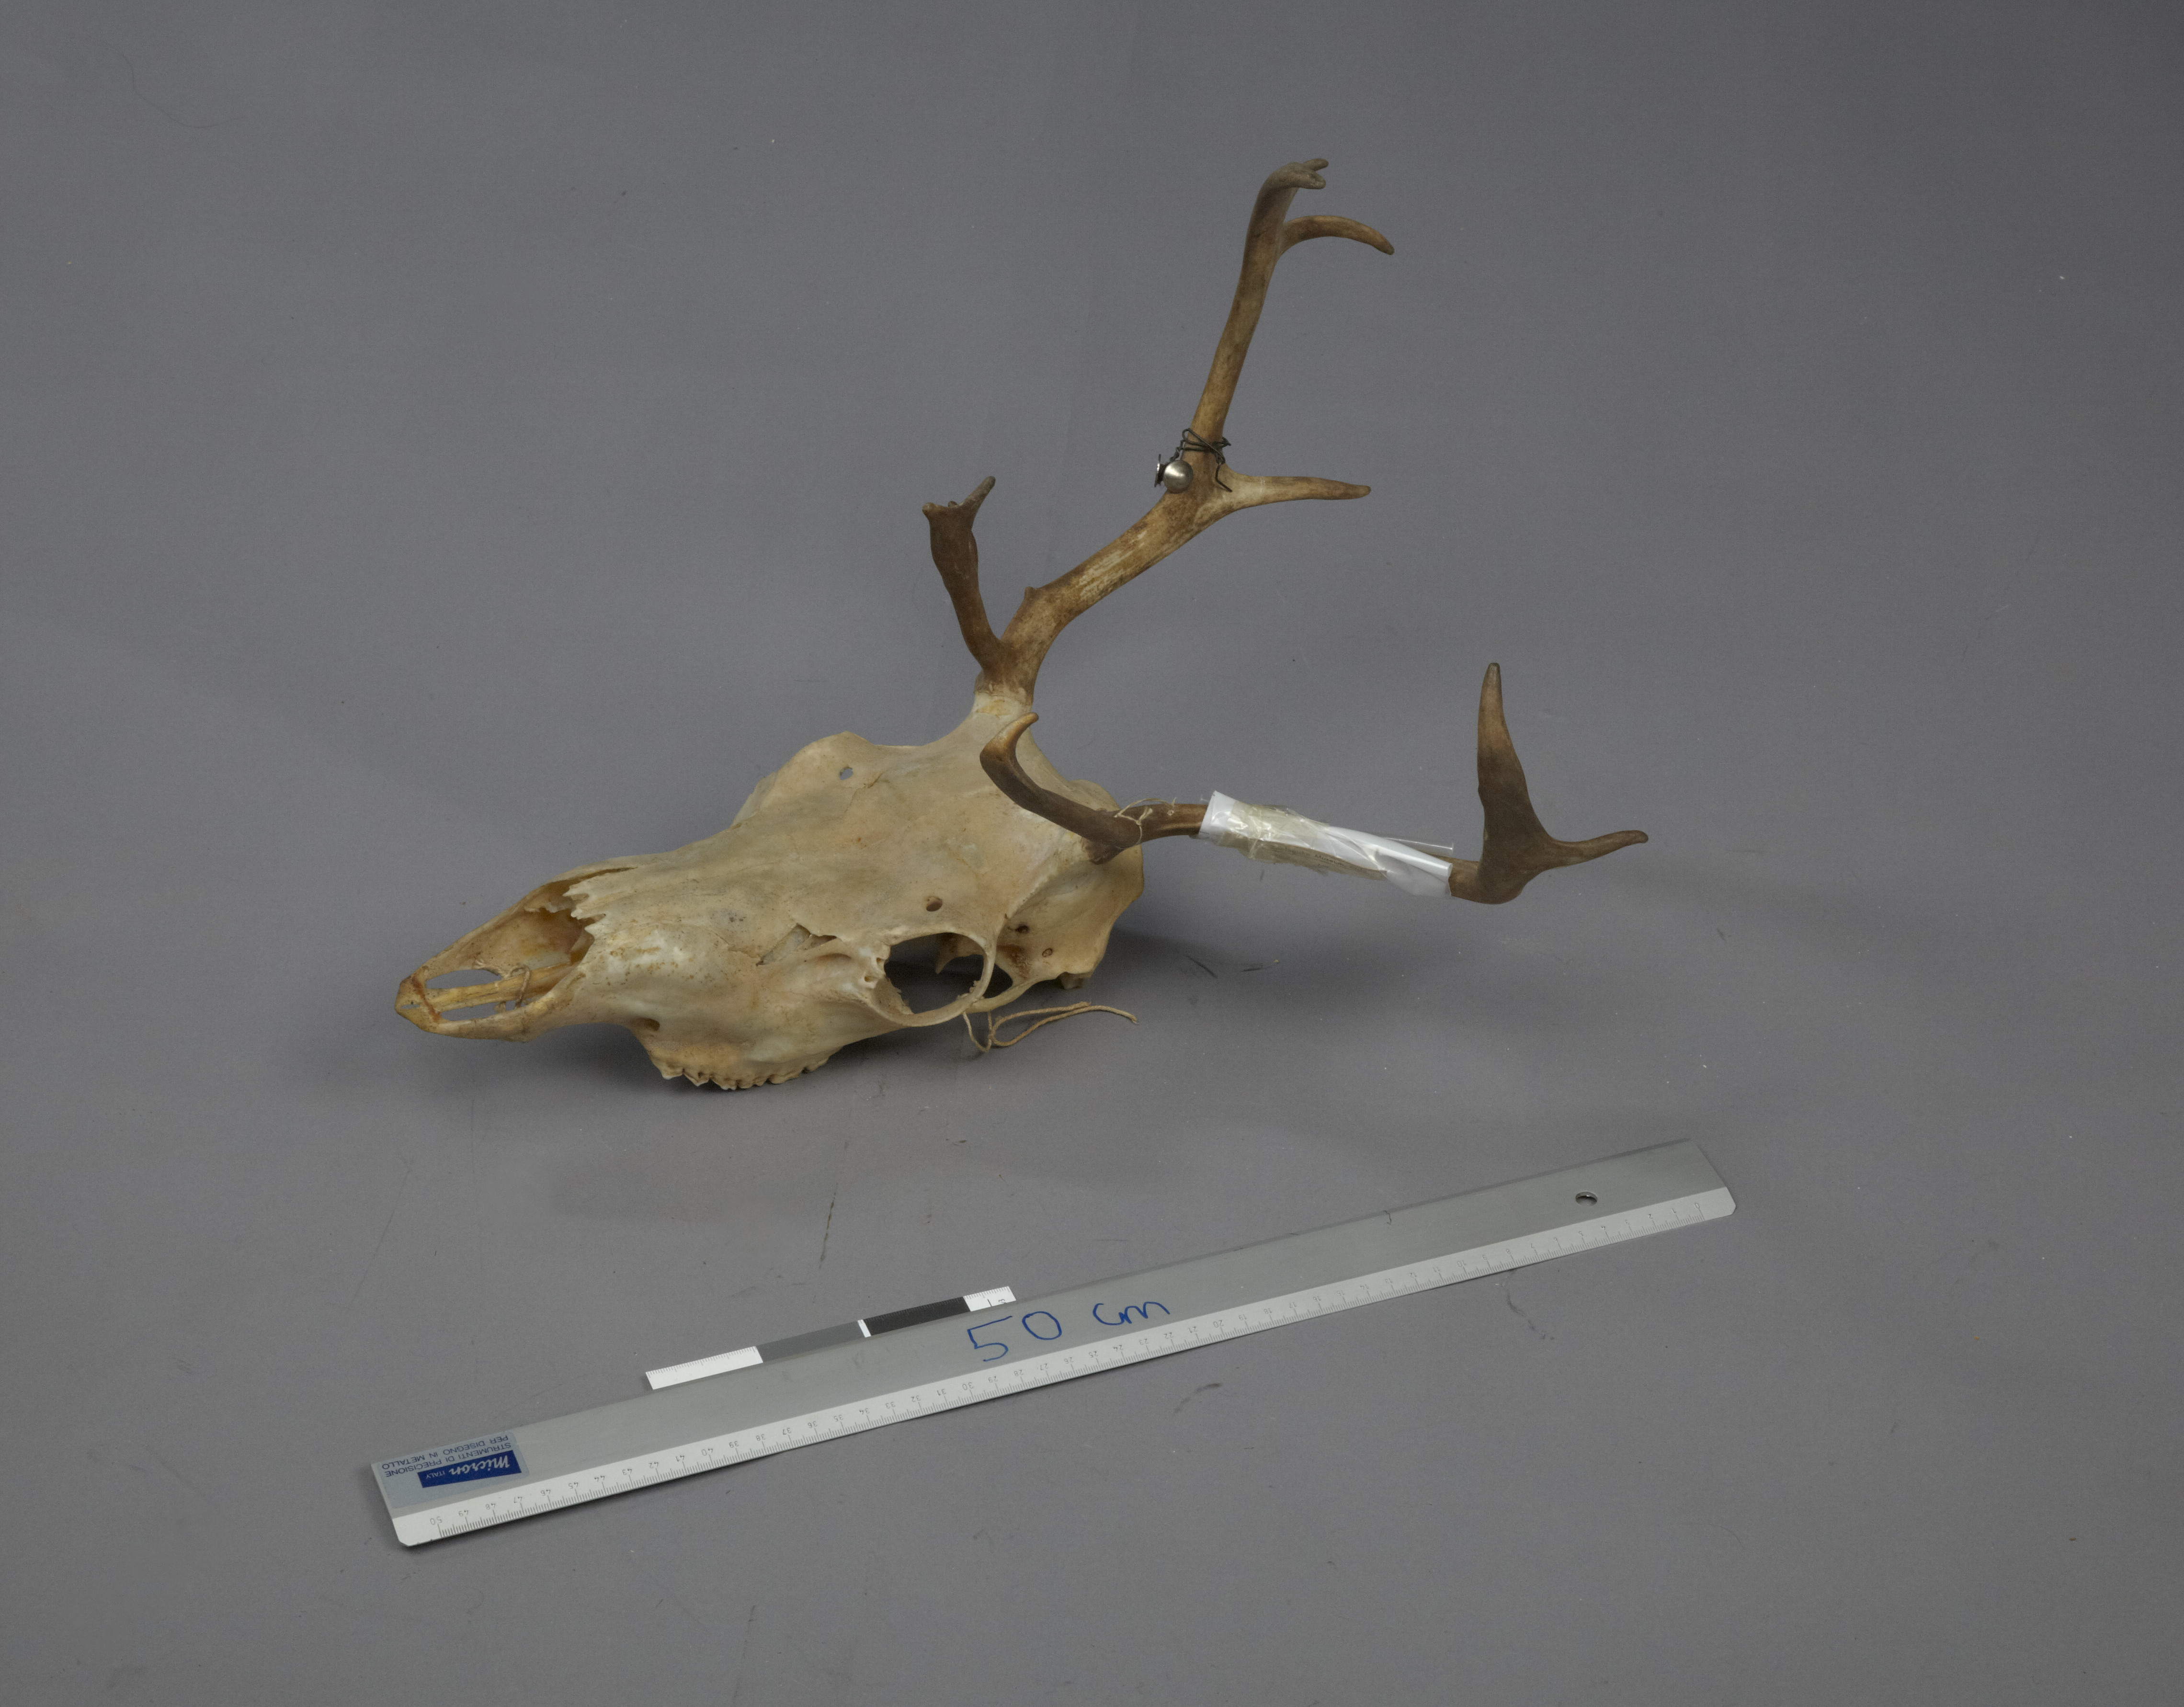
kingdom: Animalia
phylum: Chordata
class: Mammalia
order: Artiodactyla
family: Cervidae
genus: Rangifer
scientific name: Rangifer tarandus
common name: Reindeer
